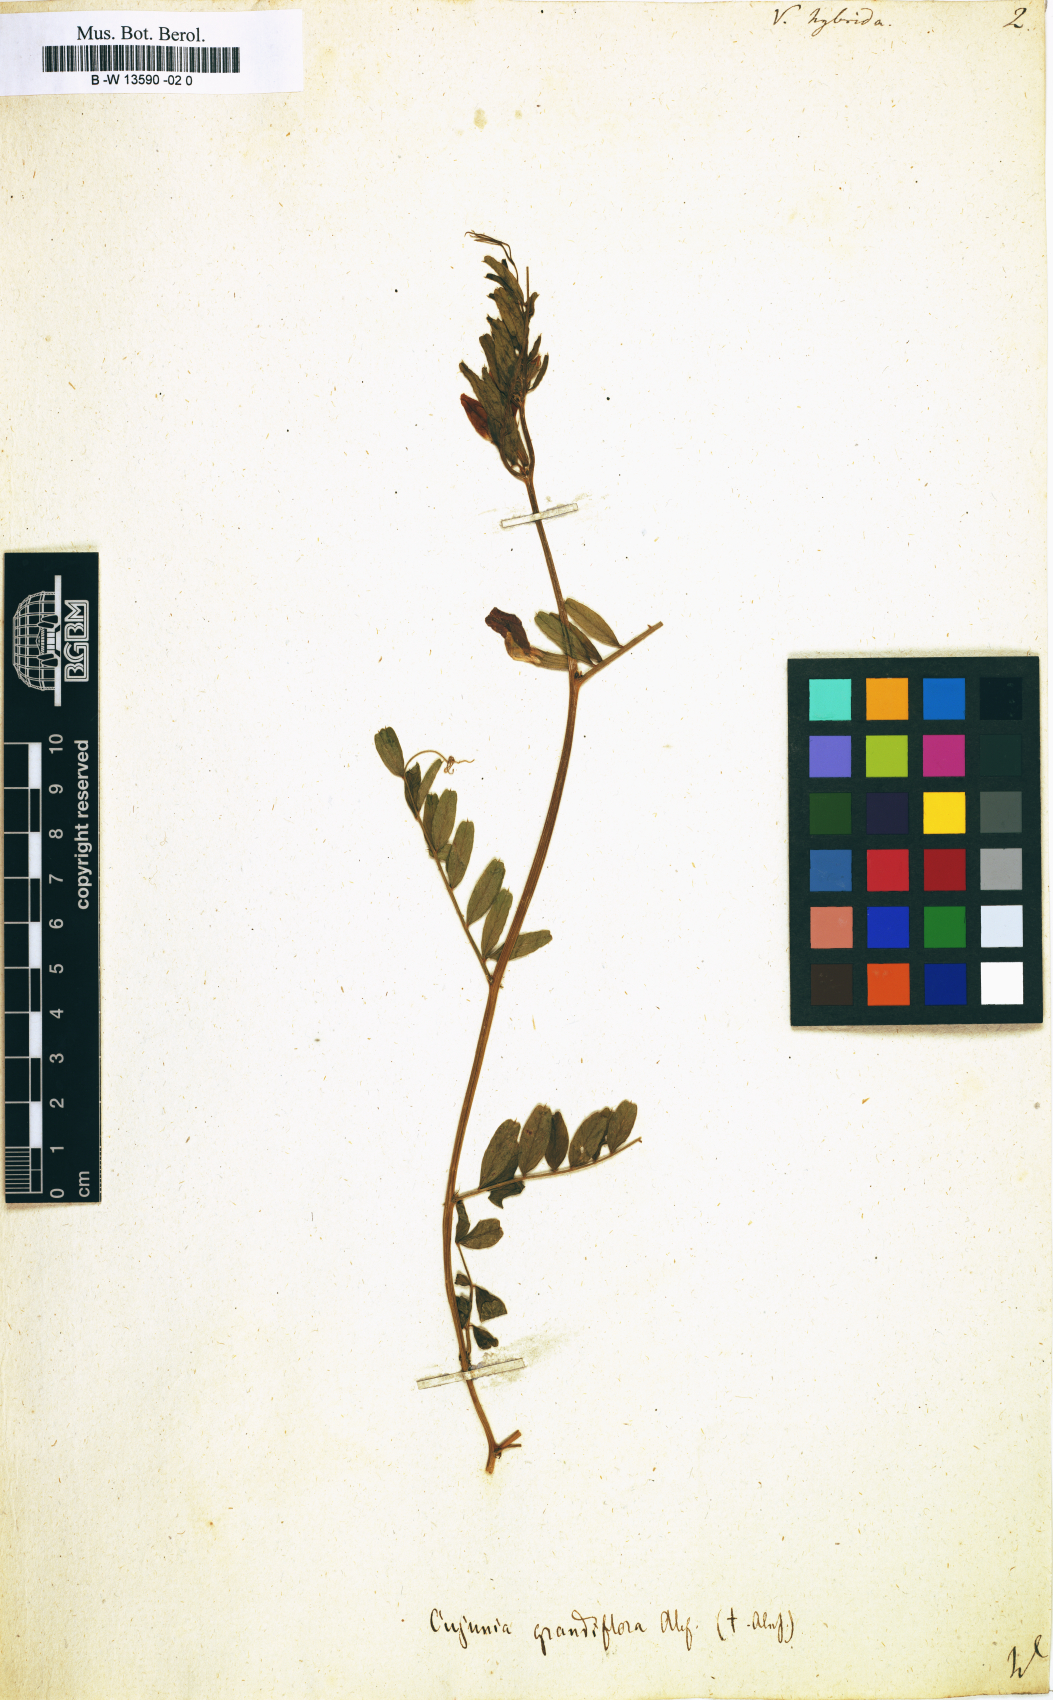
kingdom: Plantae
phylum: Tracheophyta
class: Magnoliopsida
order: Fabales
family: Fabaceae
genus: Vicia
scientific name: Vicia hybrida
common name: Hairy yellow vetch
